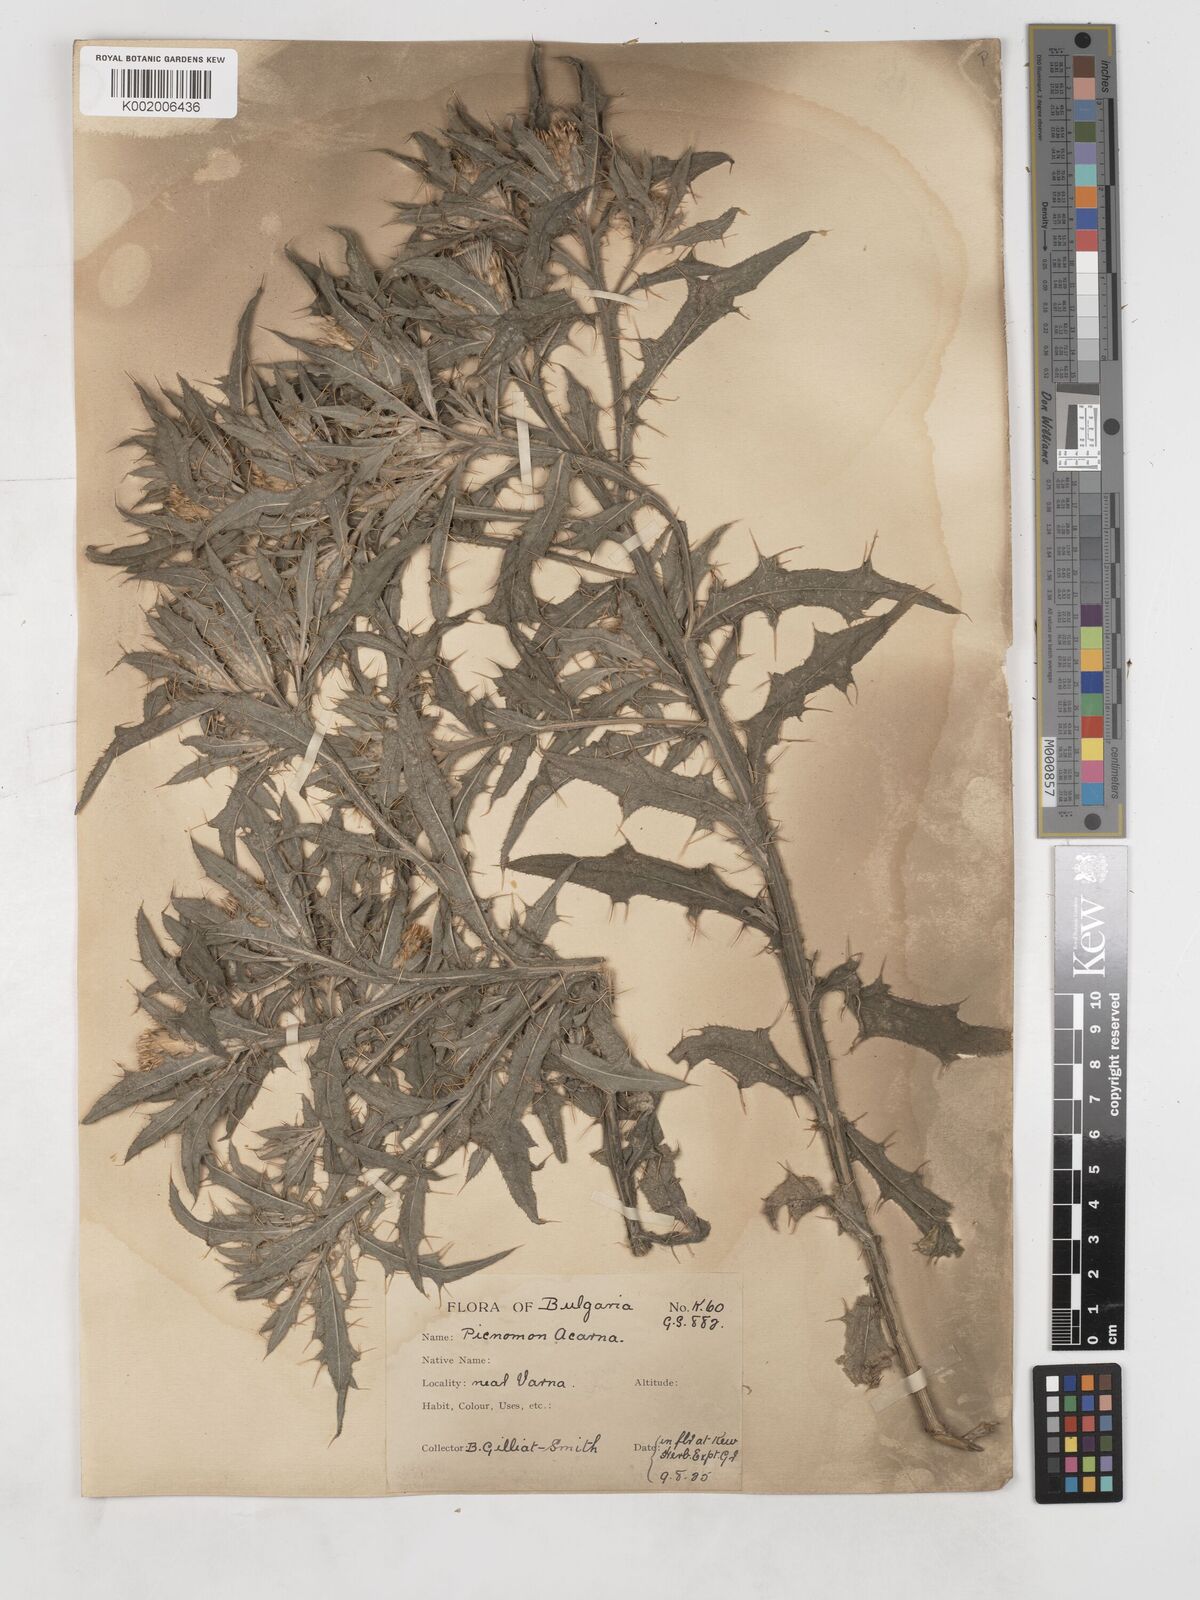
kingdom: Plantae
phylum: Tracheophyta
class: Magnoliopsida
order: Asterales
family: Asteraceae
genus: Picnomon
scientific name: Picnomon acarna
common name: Soldier thistle
